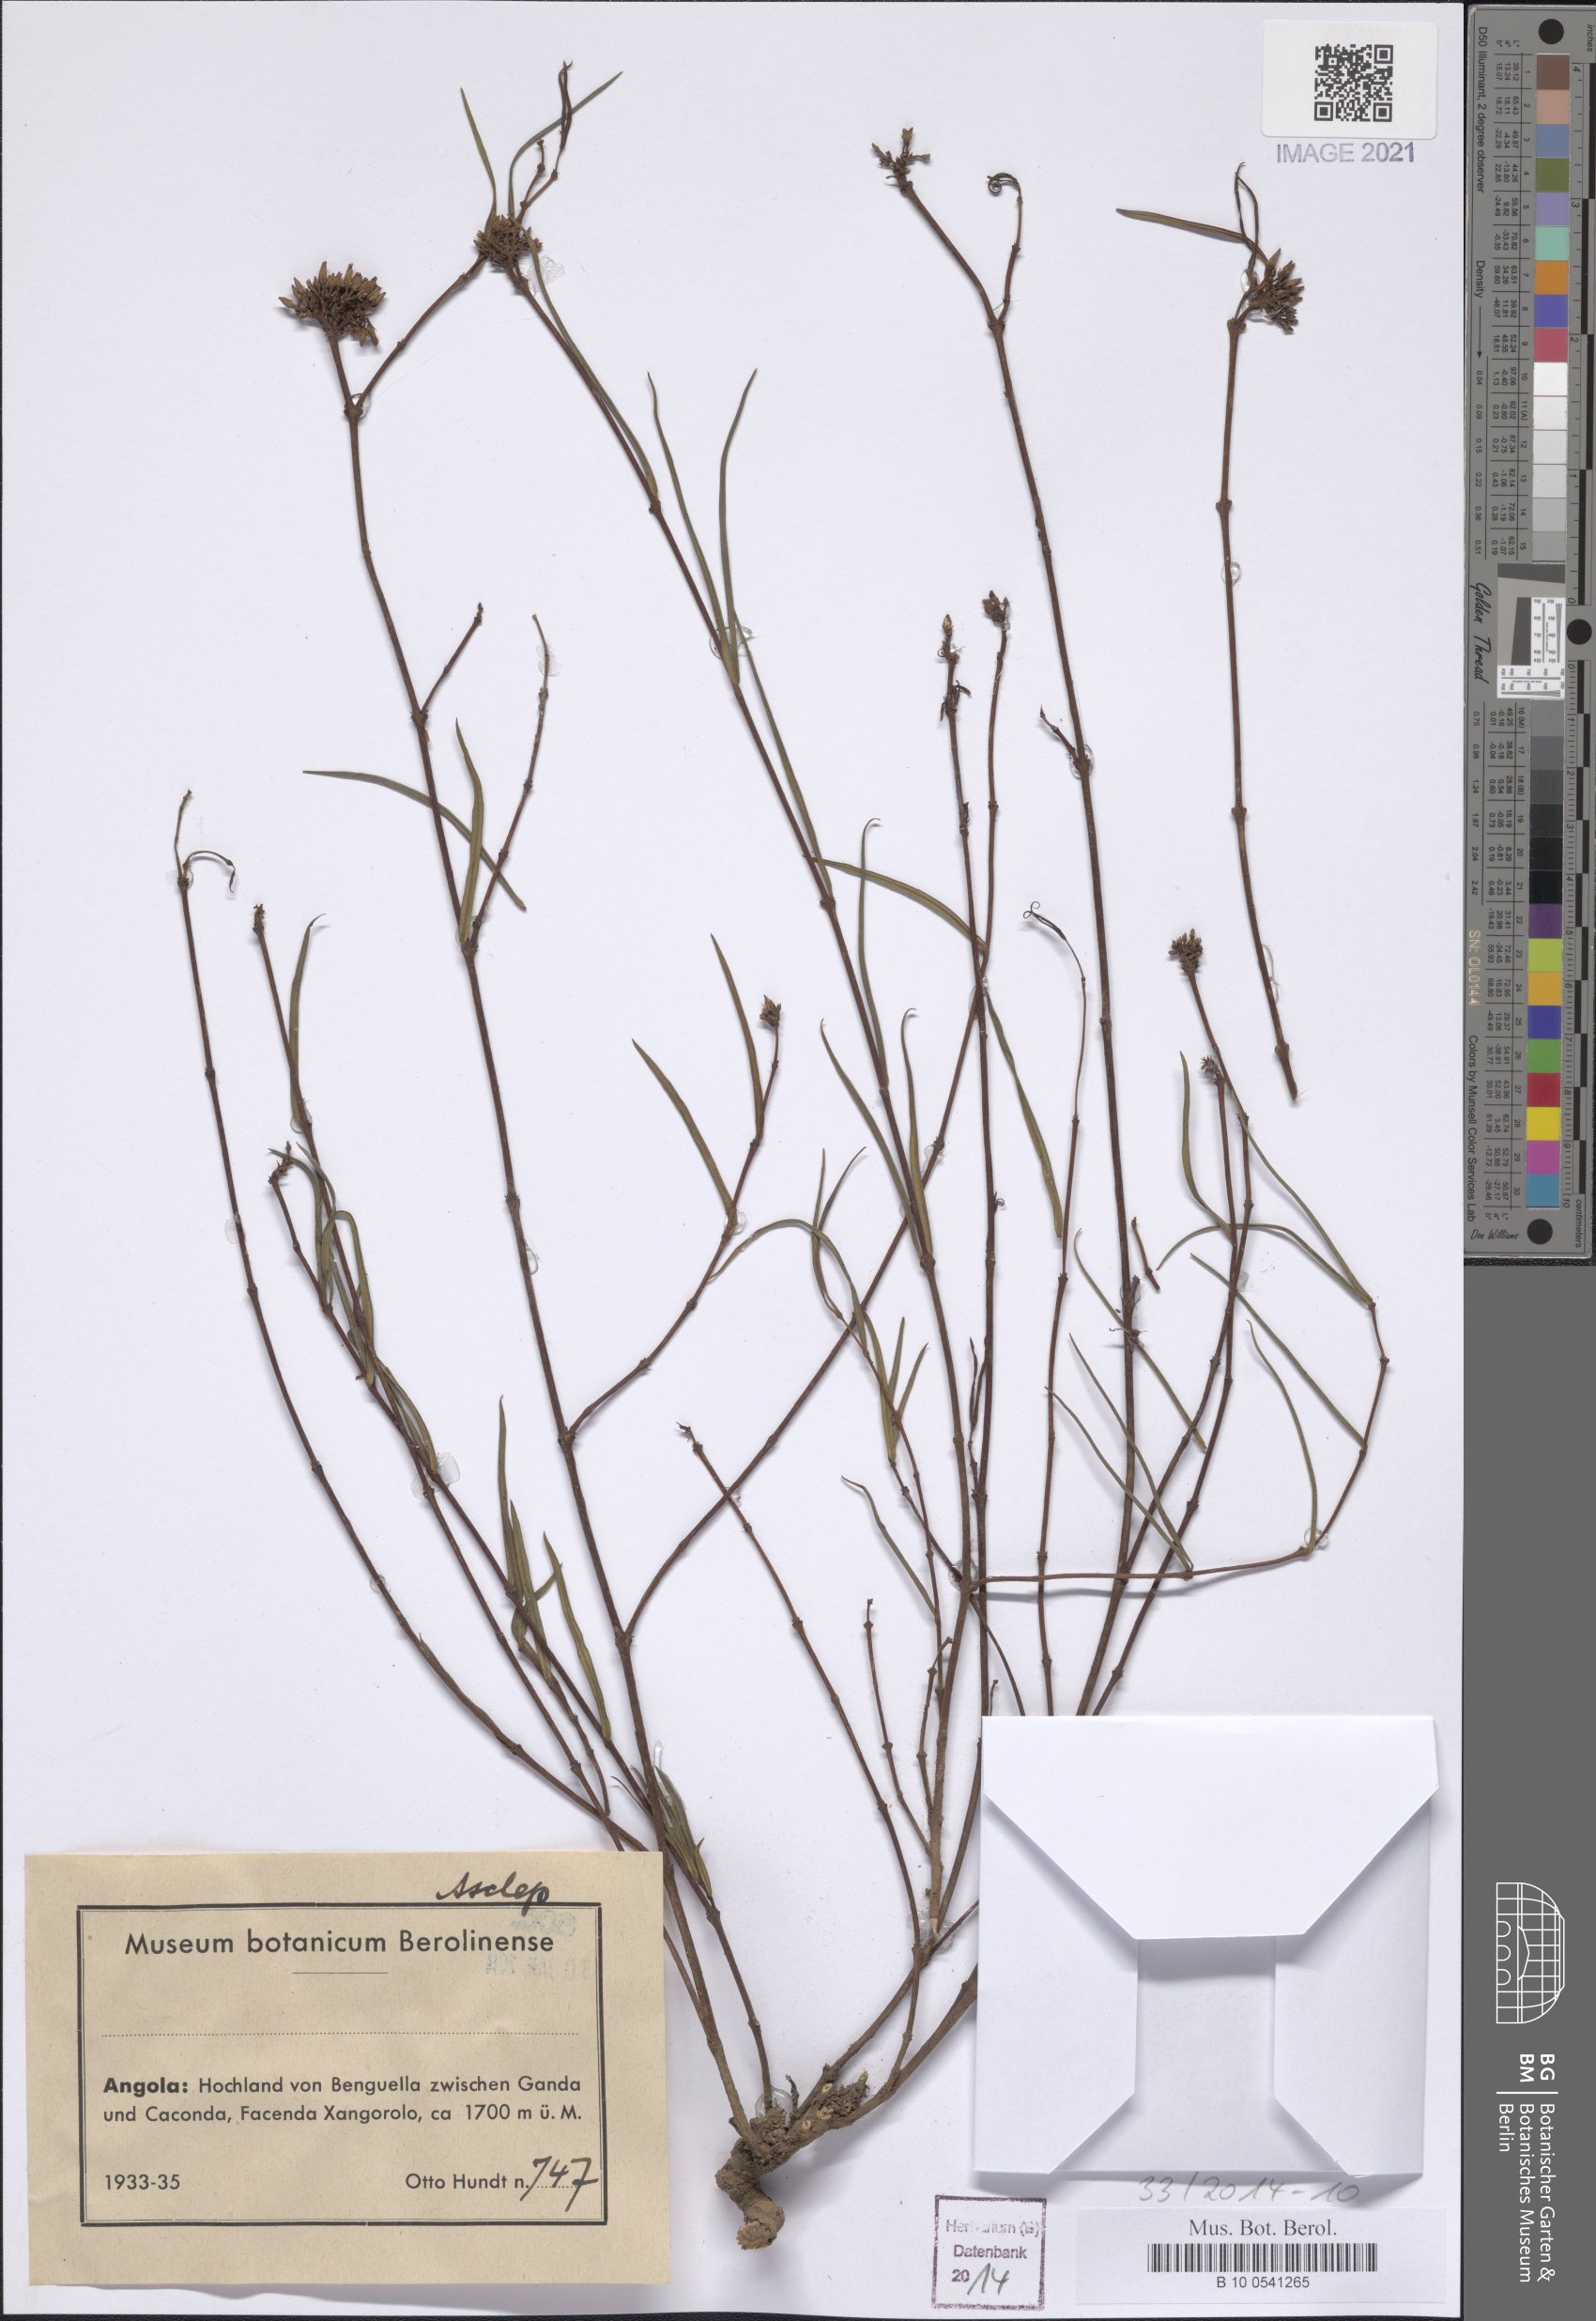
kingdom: Plantae
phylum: Tracheophyta
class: Magnoliopsida
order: Gentianales
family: Asclepiadaceae
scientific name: Asclepiadaceae
